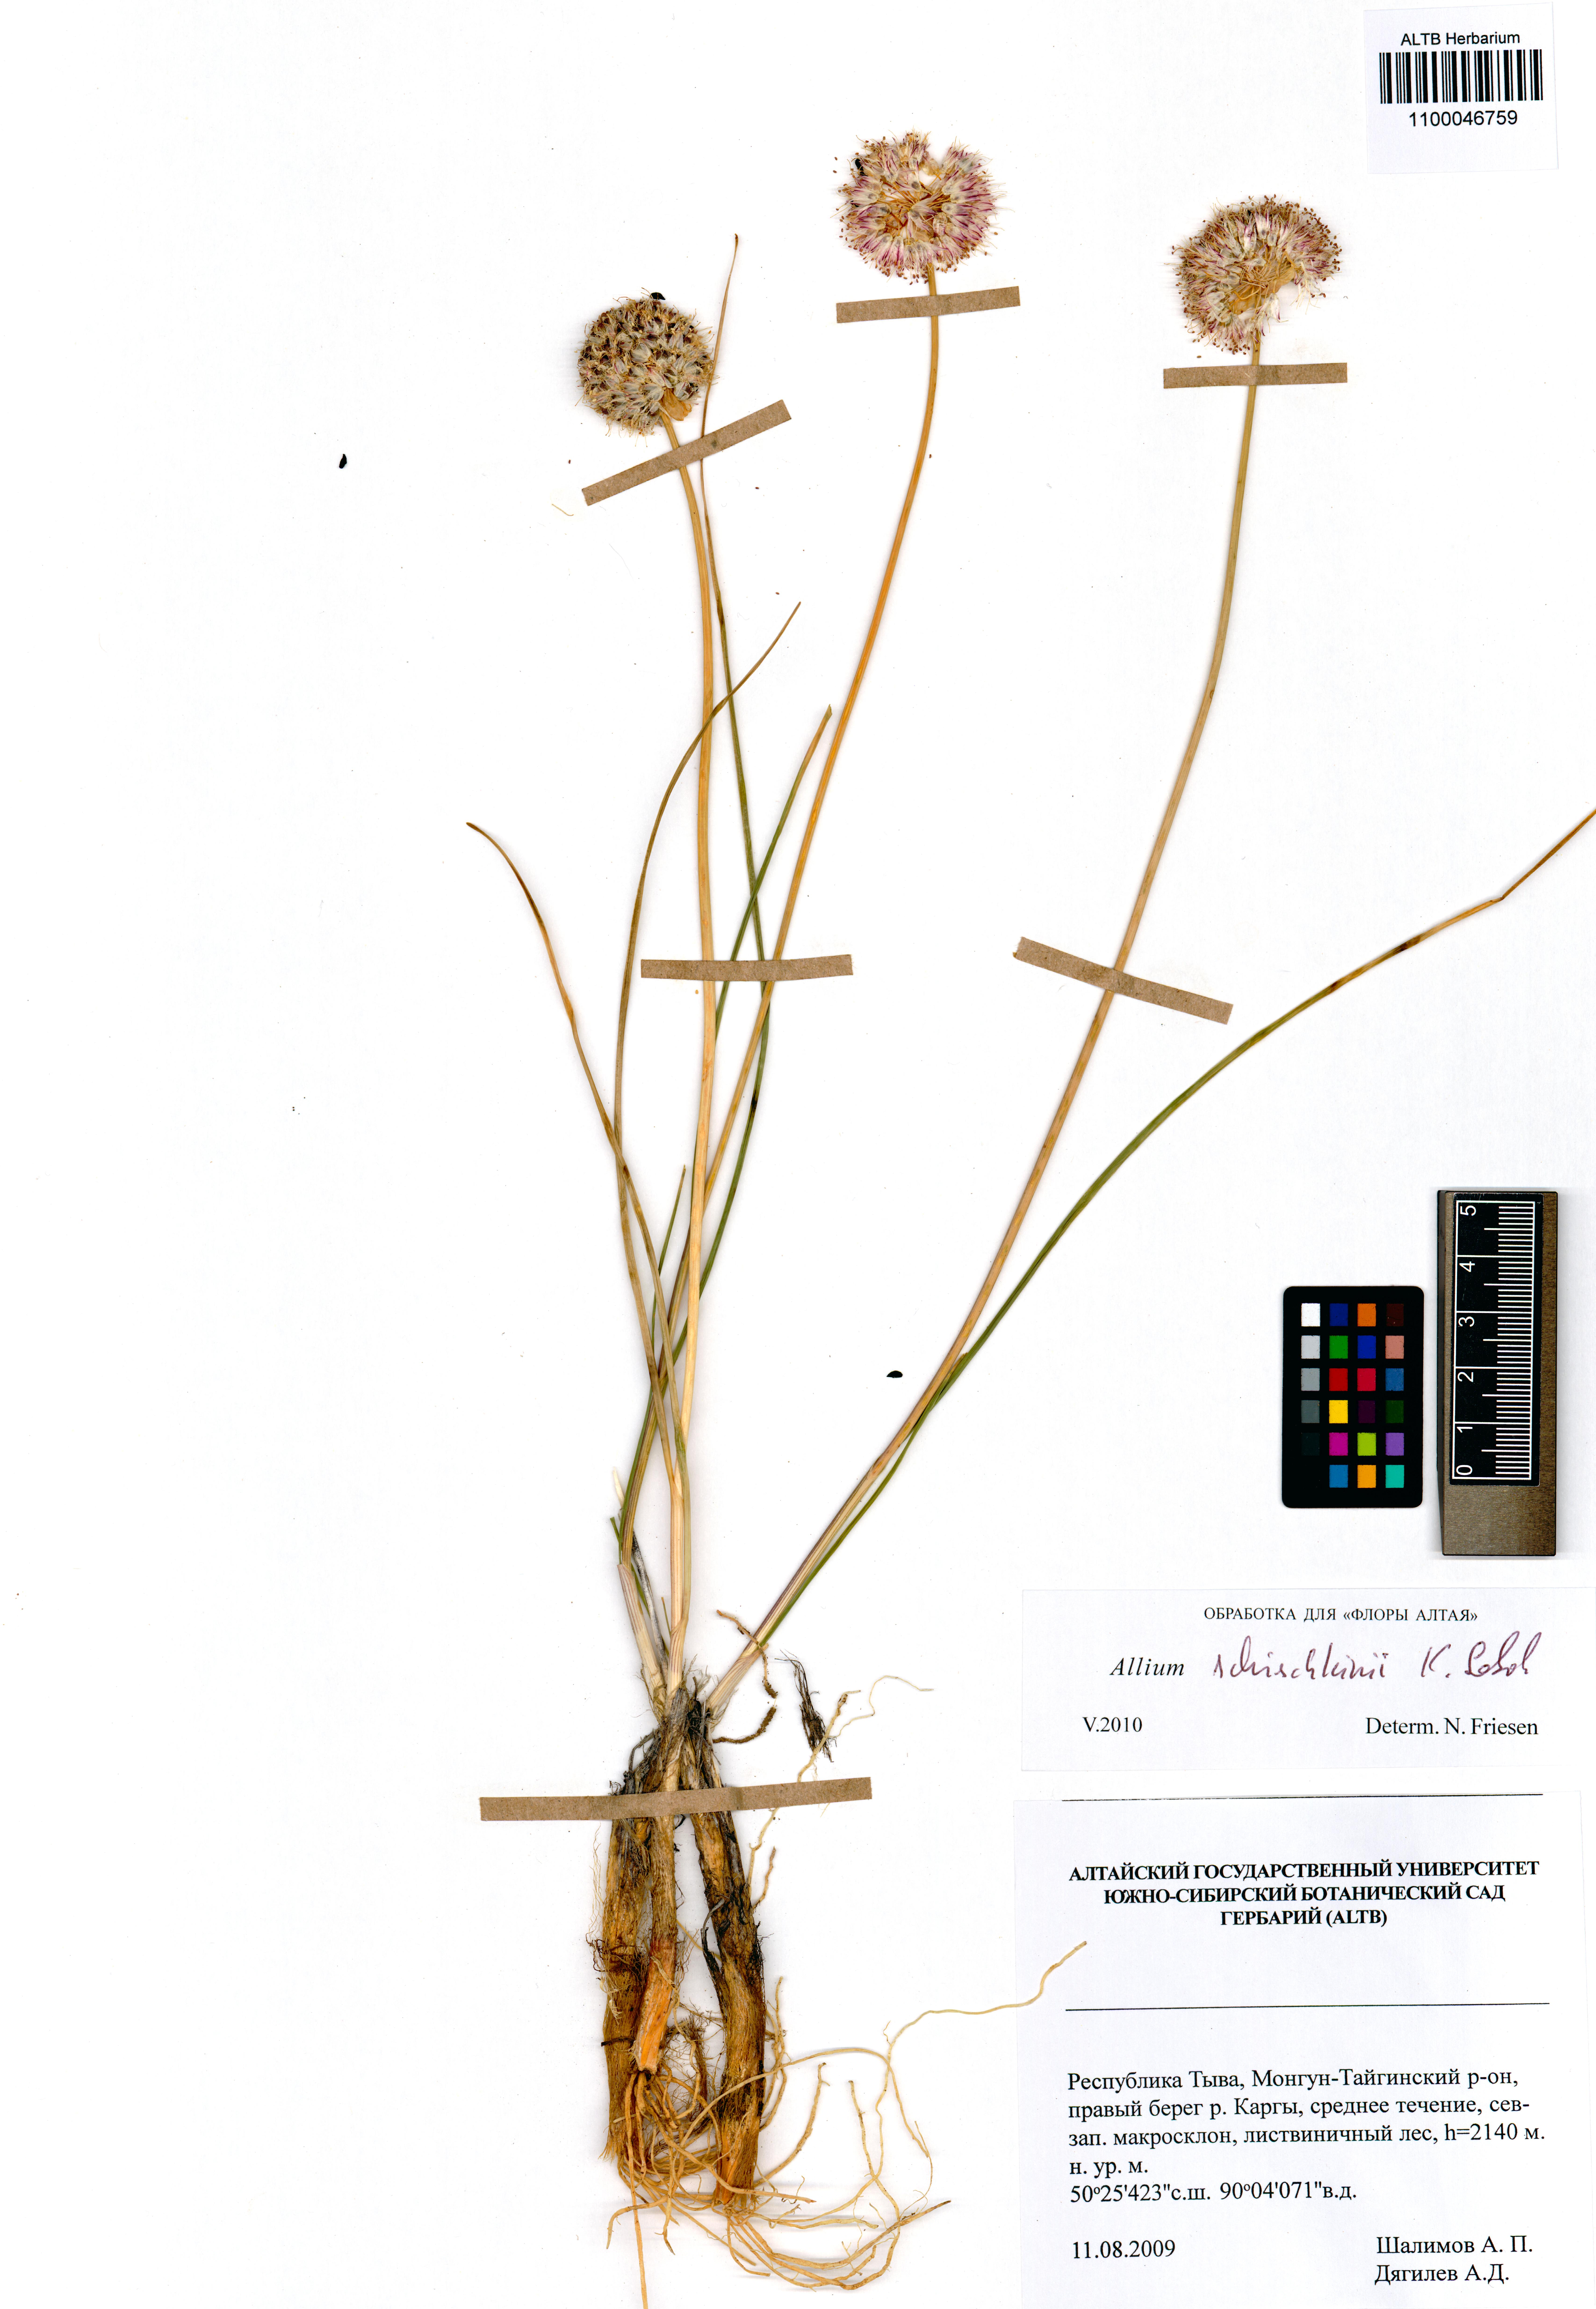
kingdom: Plantae
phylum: Tracheophyta
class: Liliopsida
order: Asparagales
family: Amaryllidaceae
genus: Allium
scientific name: Allium schischkinii
